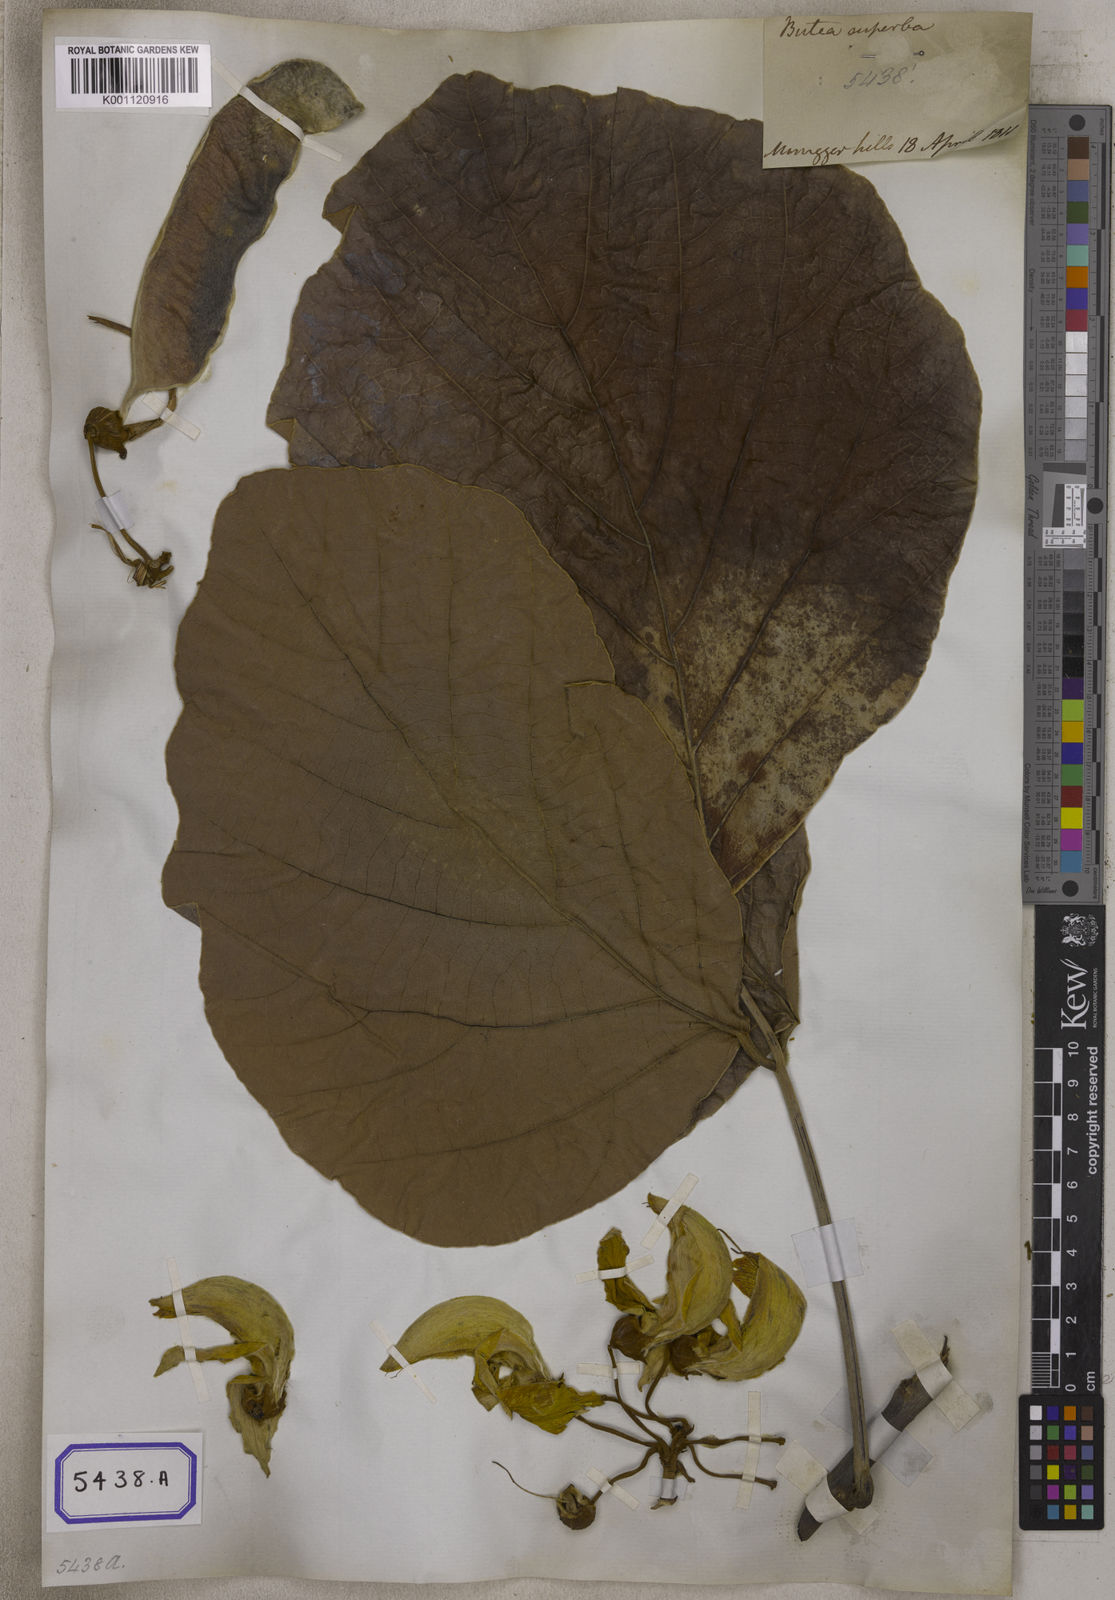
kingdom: Plantae
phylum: Tracheophyta
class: Magnoliopsida
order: Fabales
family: Fabaceae
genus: Butea
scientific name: Butea
